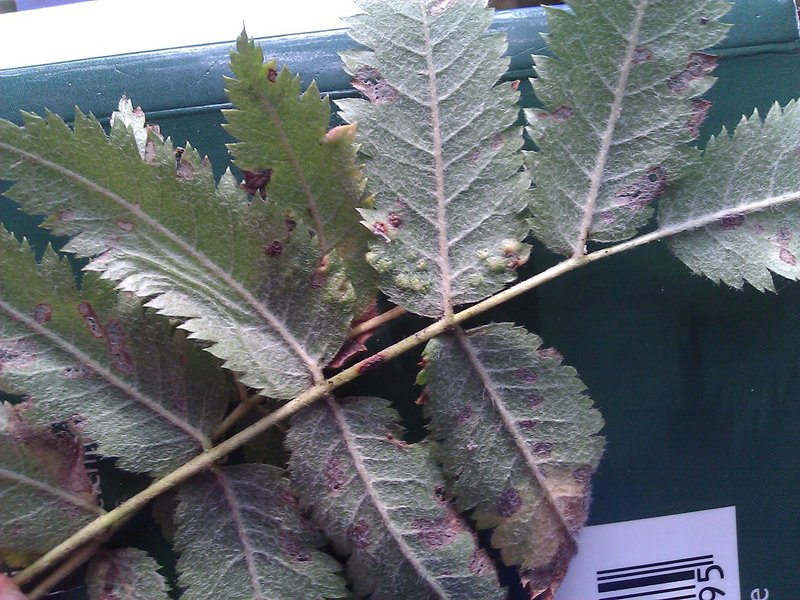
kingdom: Animalia
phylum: Arthropoda
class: Arachnida
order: Trombidiformes
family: Eriophyidae
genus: Eriophyes
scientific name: Eriophyes sorbi
